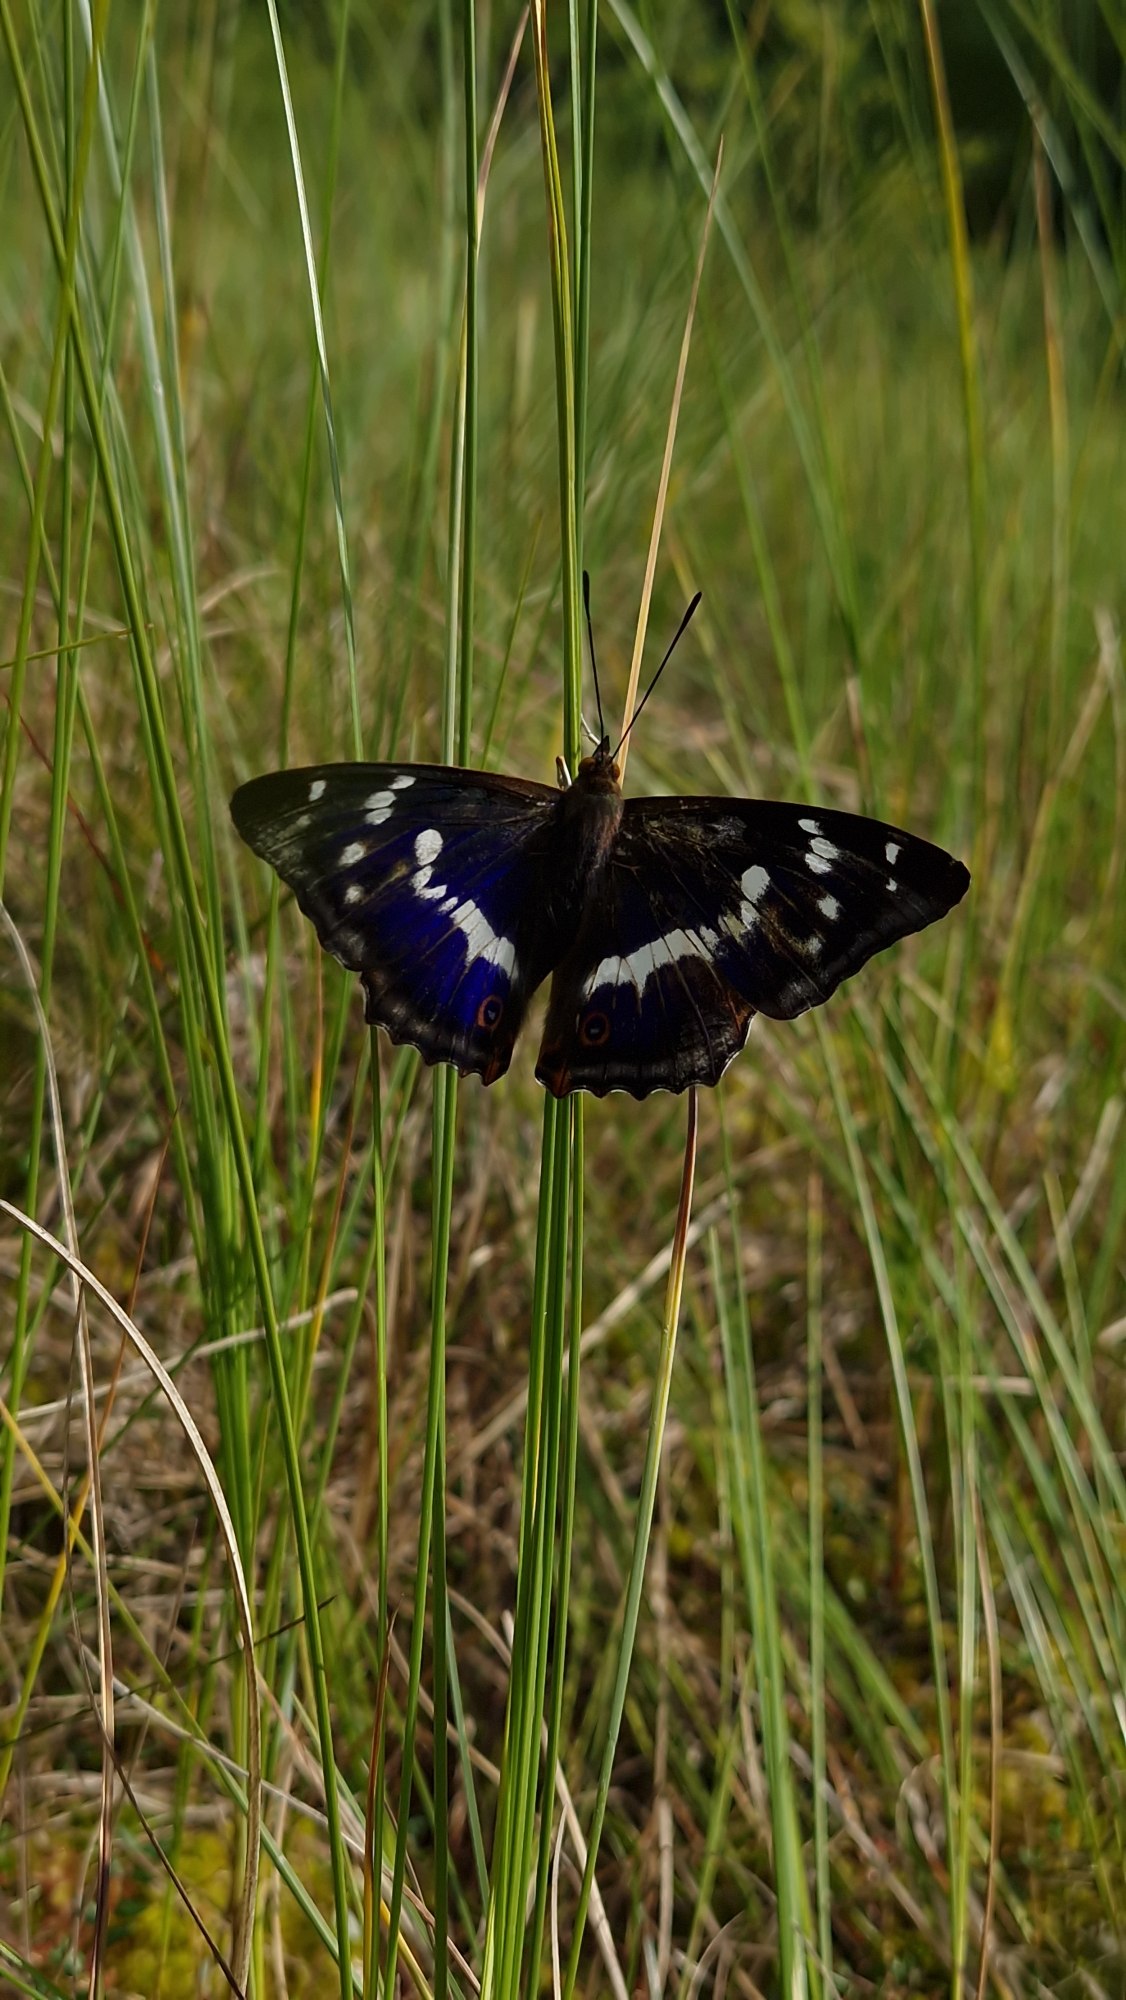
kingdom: Animalia
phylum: Arthropoda
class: Insecta
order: Lepidoptera
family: Nymphalidae
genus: Apatura
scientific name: Apatura iris
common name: Iris
